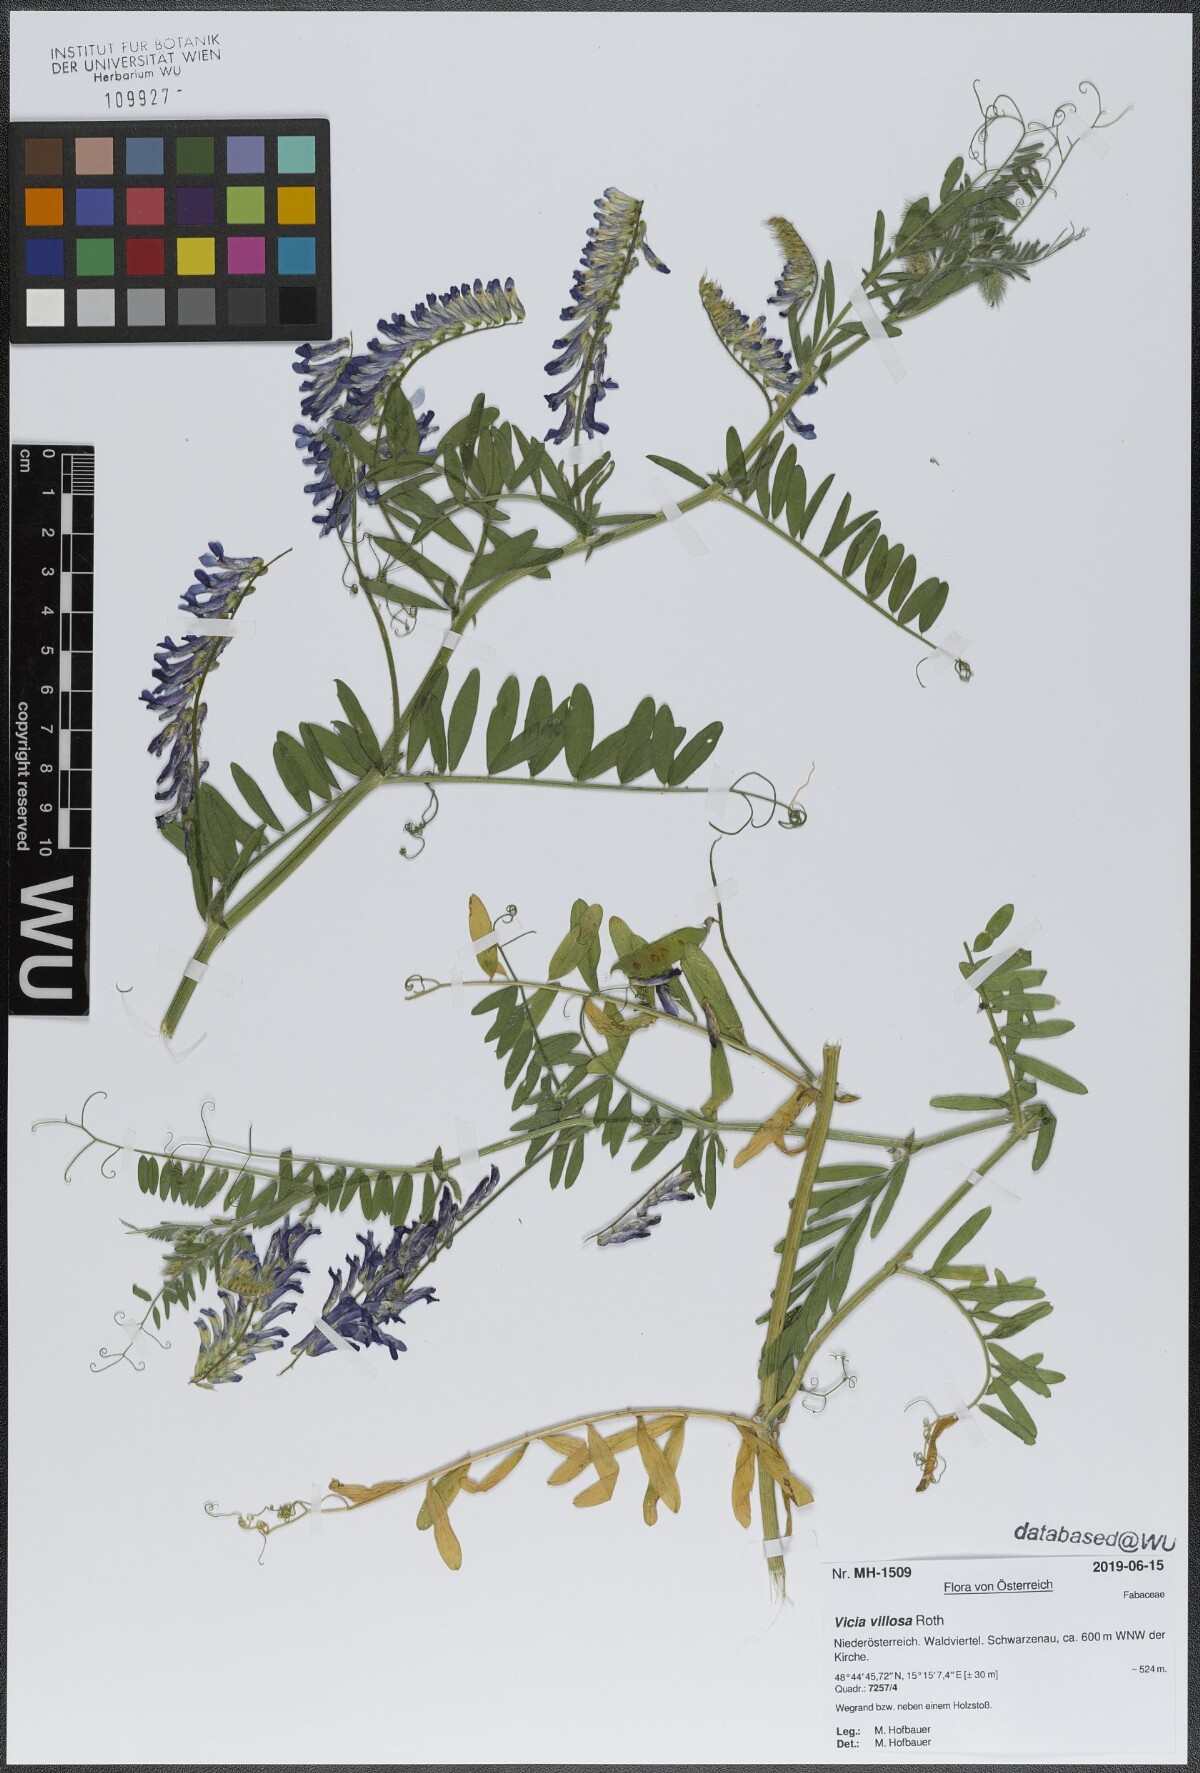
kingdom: Plantae
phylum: Tracheophyta
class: Magnoliopsida
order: Fabales
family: Fabaceae
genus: Vicia
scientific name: Vicia villosa
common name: Fodder vetch
